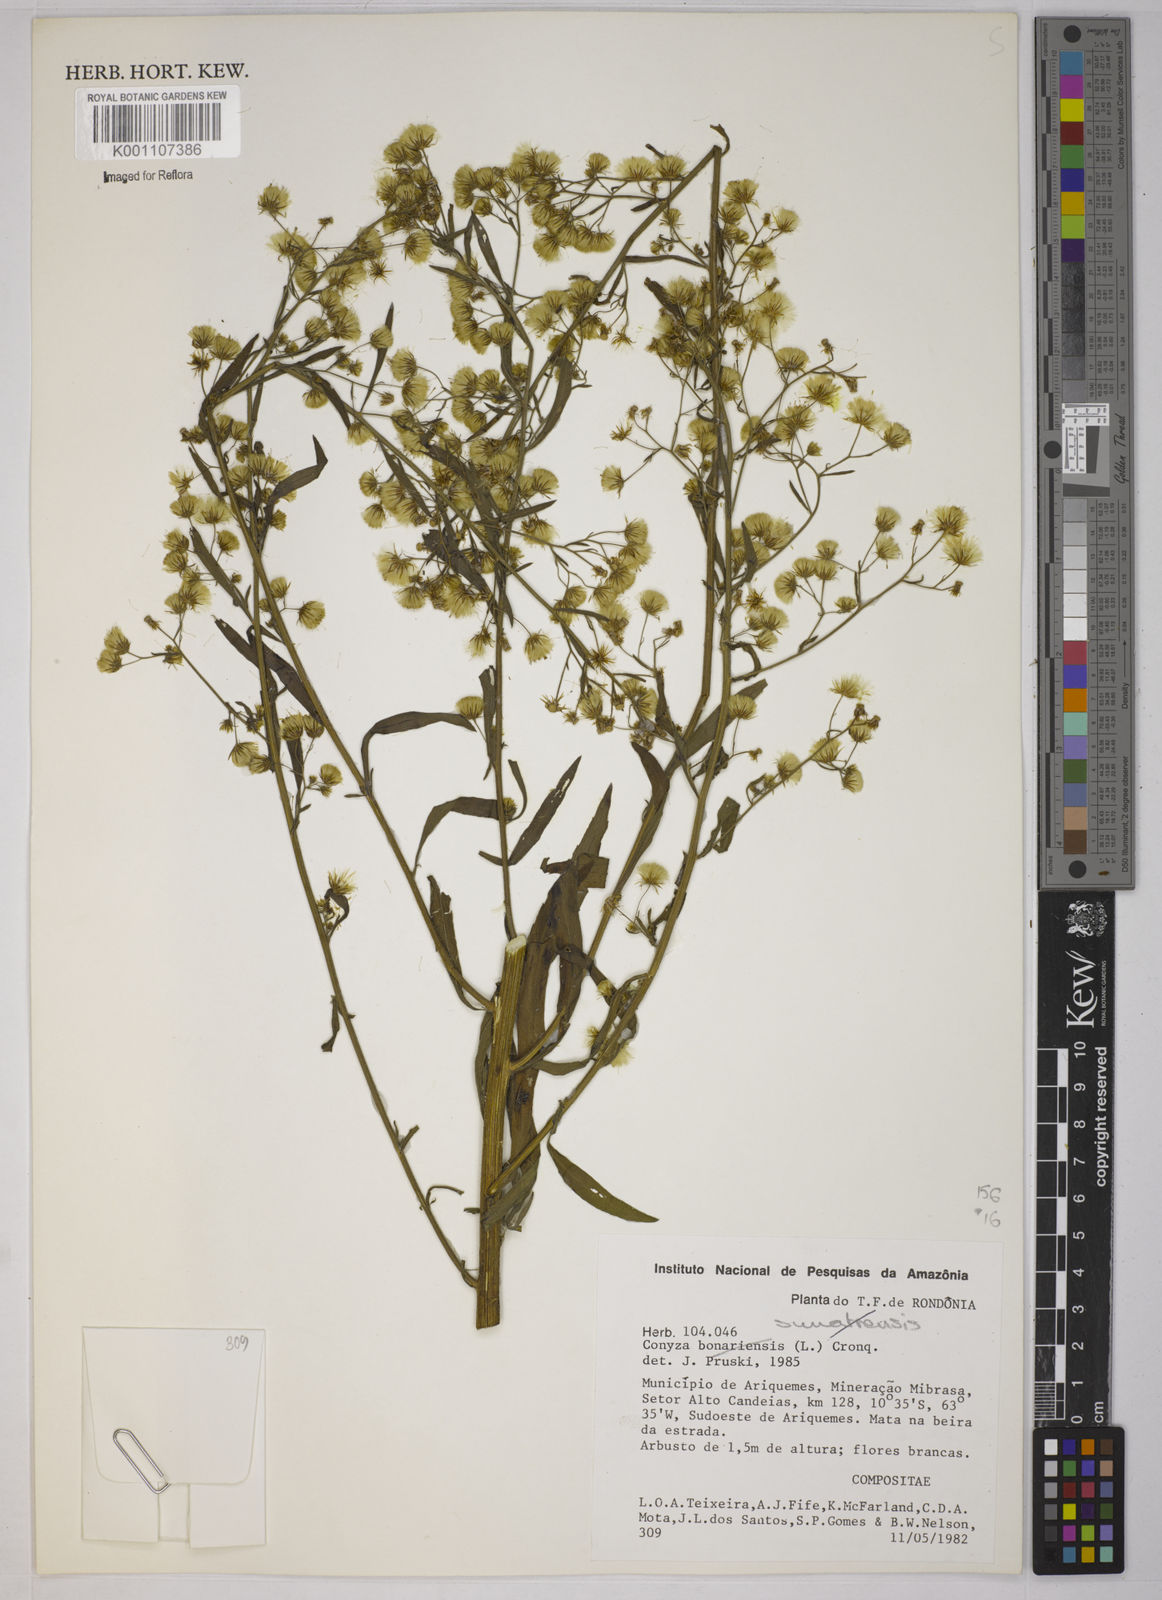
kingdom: Plantae
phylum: Tracheophyta
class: Magnoliopsida
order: Asterales
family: Asteraceae
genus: Erigeron
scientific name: Erigeron sumatrensis
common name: Daisy
